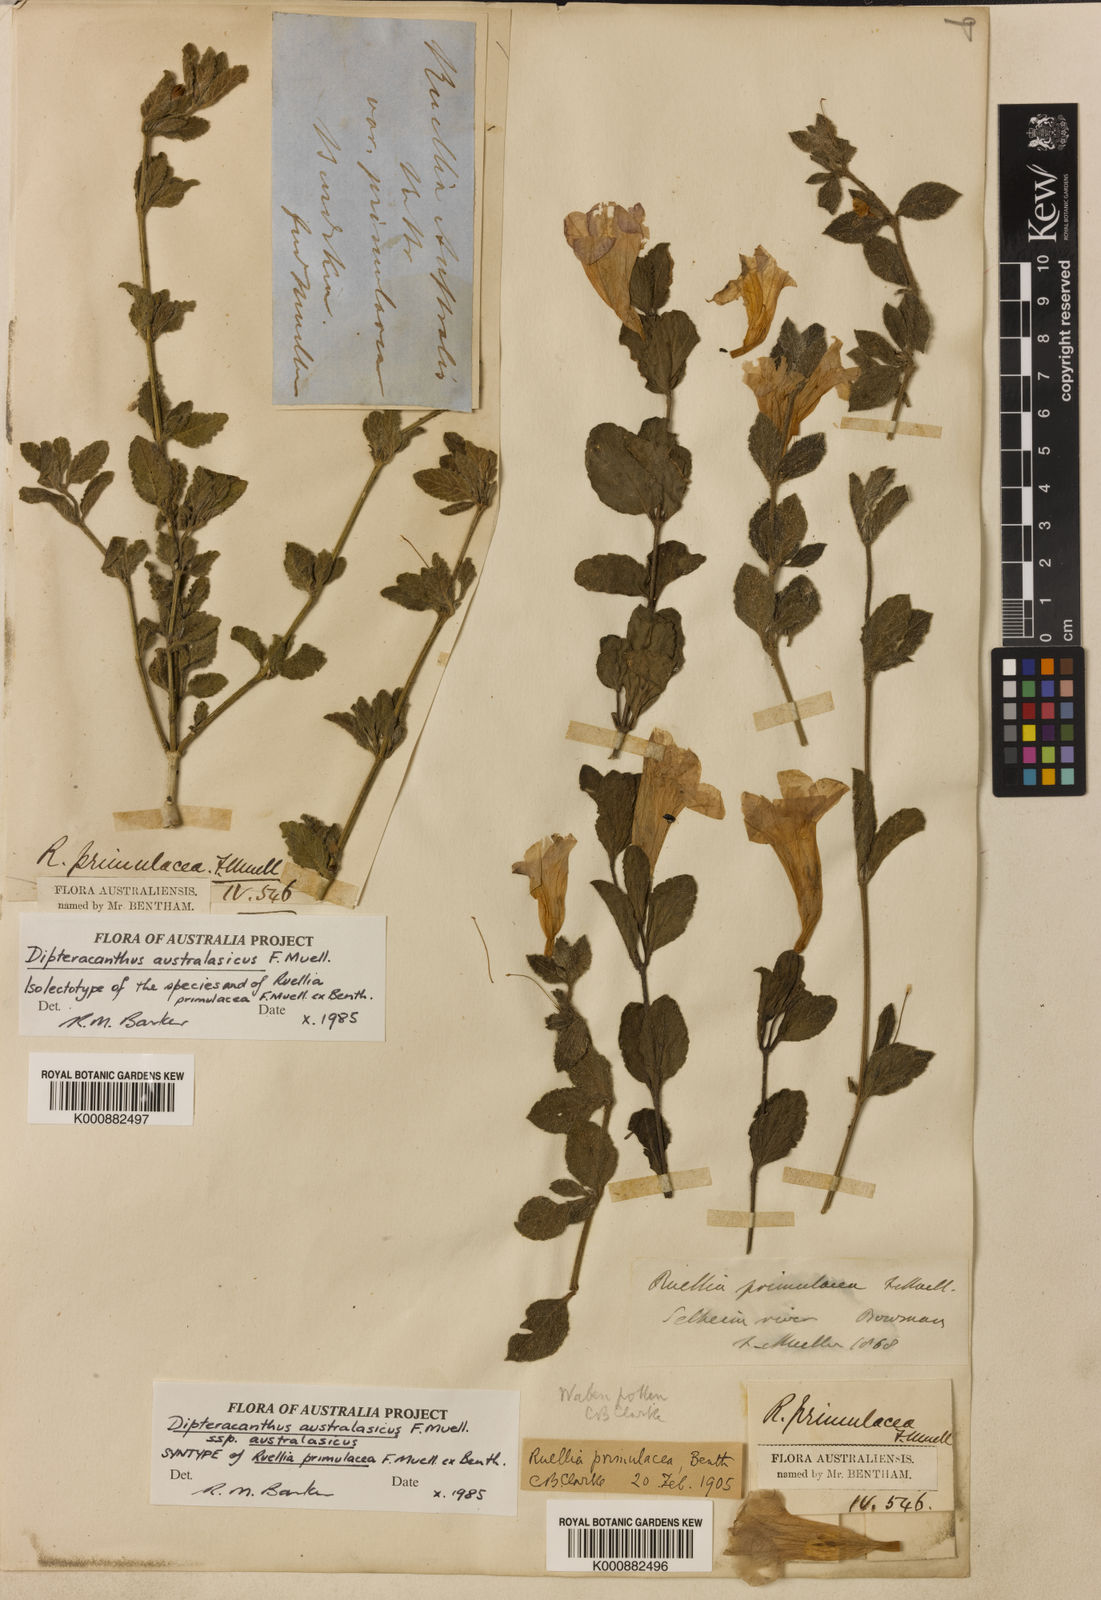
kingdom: Plantae
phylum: Tracheophyta
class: Magnoliopsida
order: Lamiales
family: Acanthaceae
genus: Ruellia
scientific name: Ruellia primulacea
